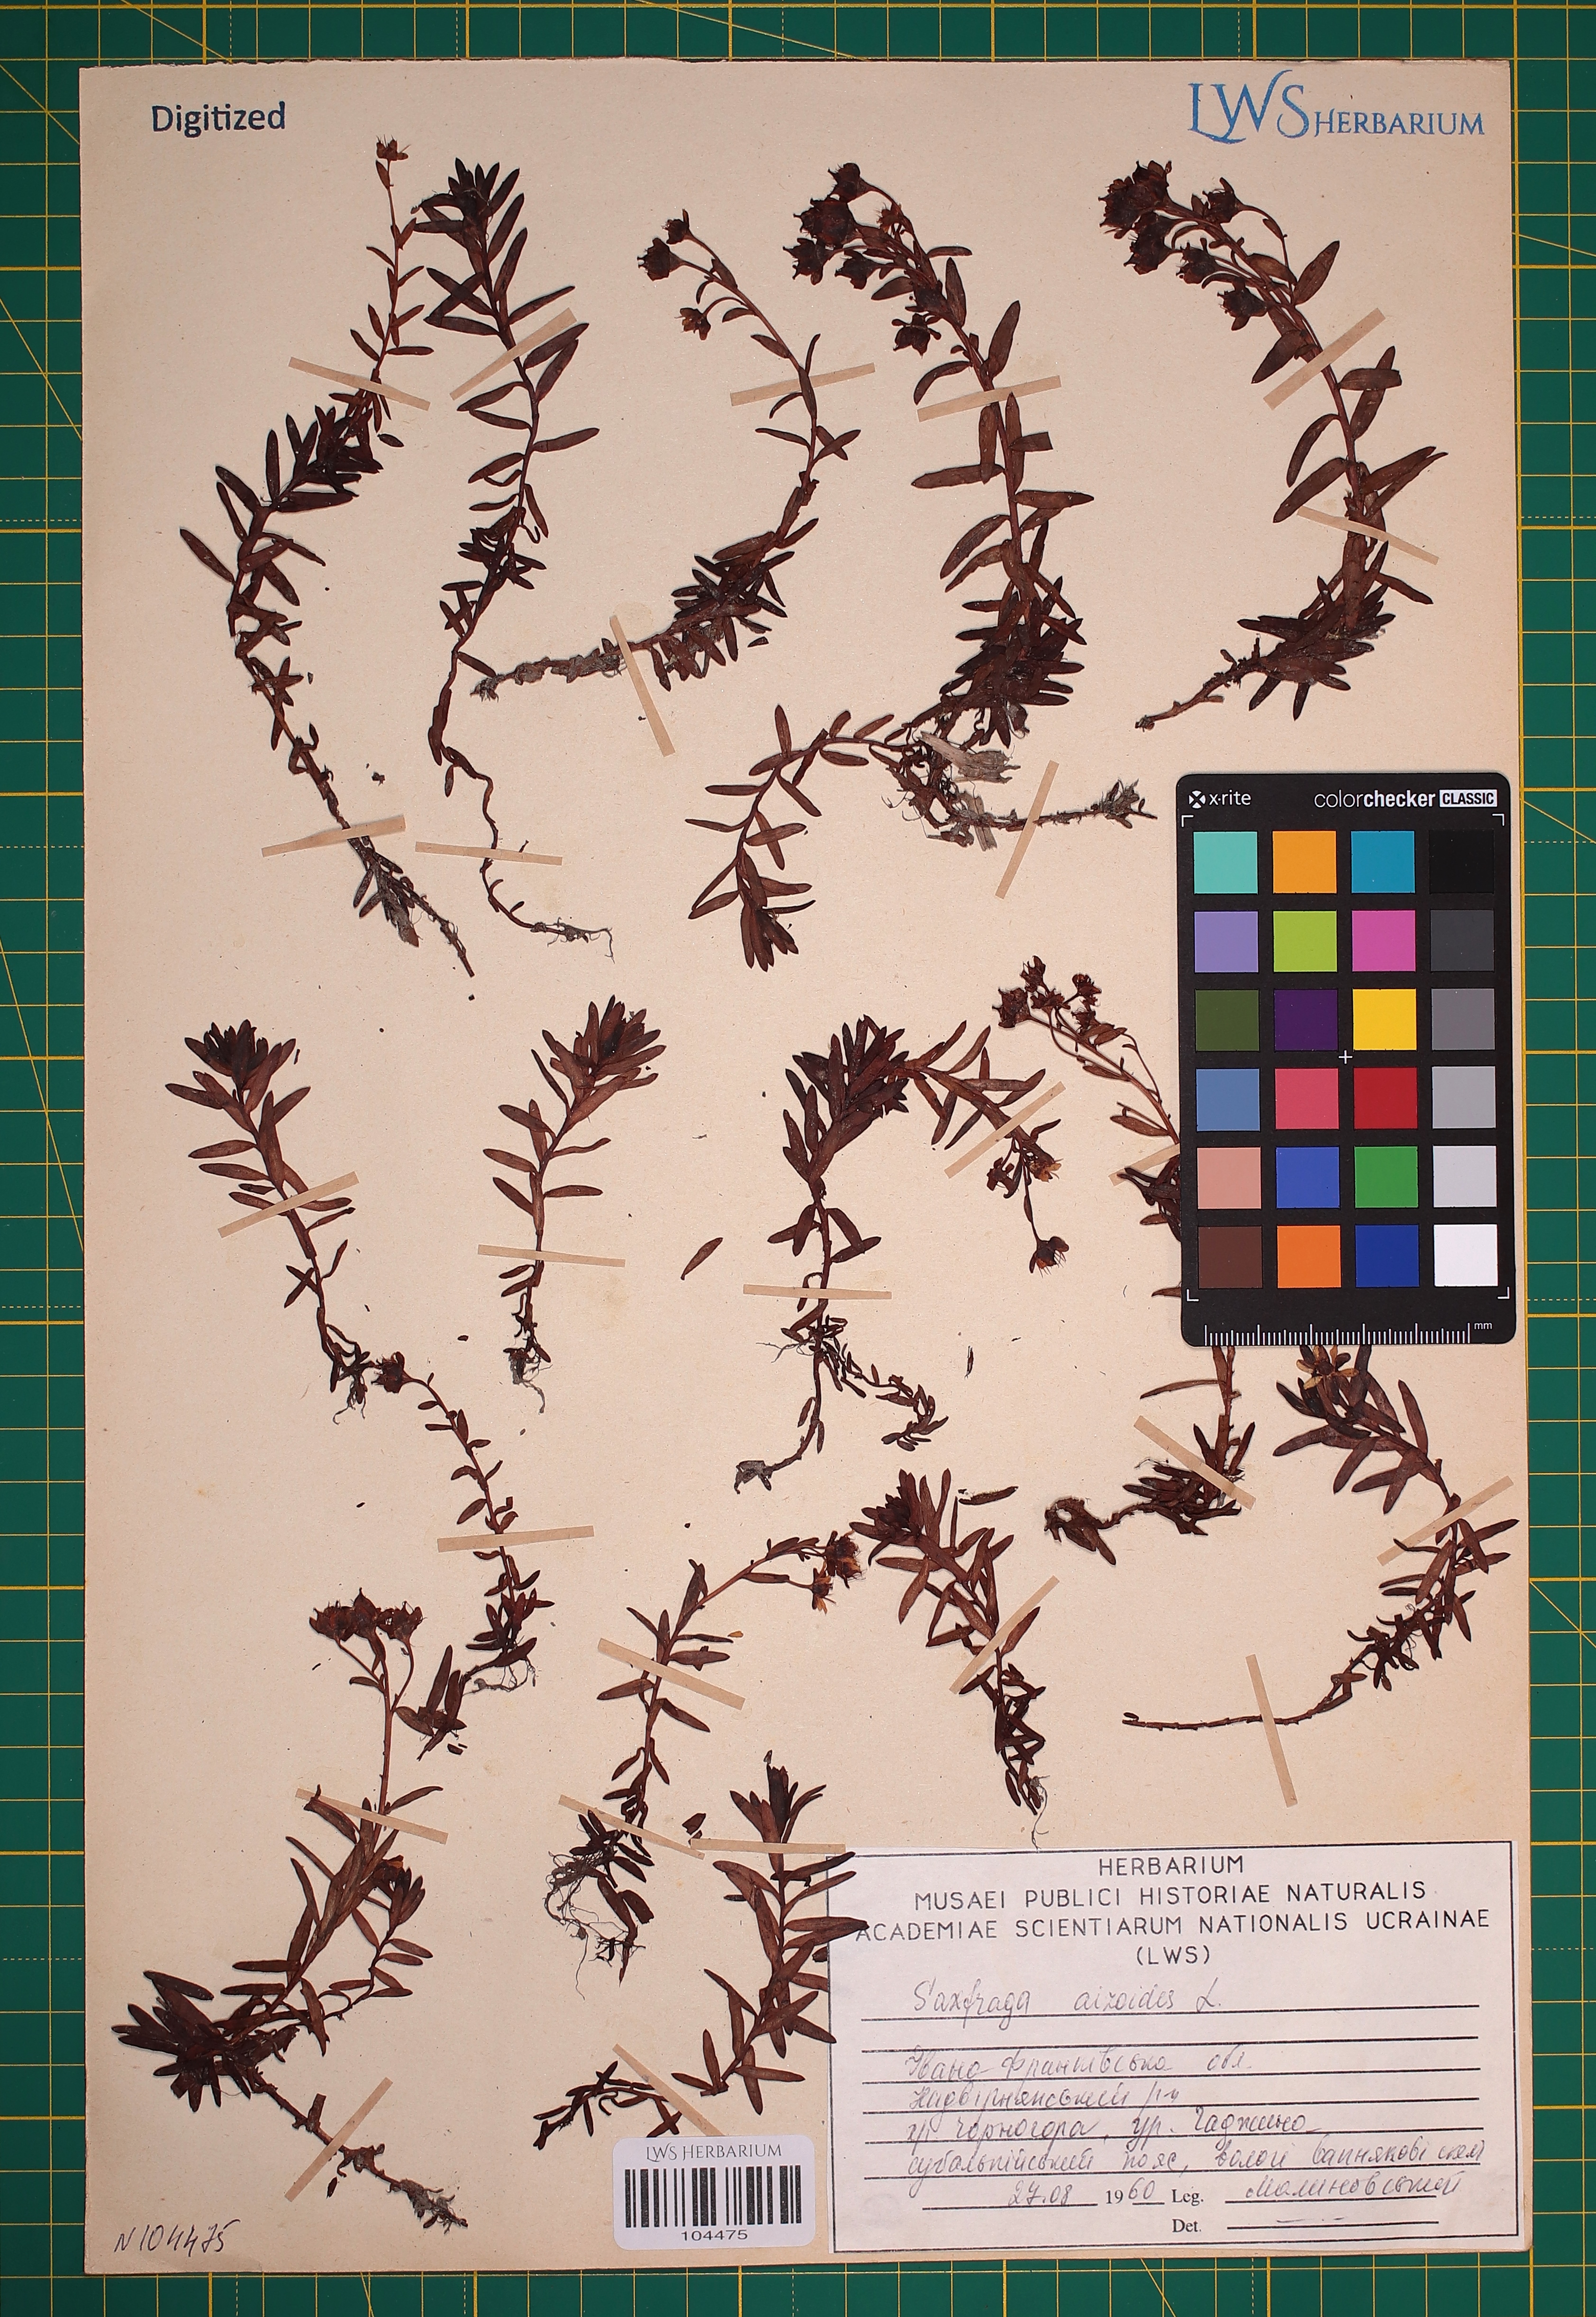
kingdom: Plantae
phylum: Tracheophyta
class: Magnoliopsida
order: Saxifragales
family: Saxifragaceae
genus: Saxifraga
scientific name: Saxifraga aizoides
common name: Yellow mountain saxifrage
